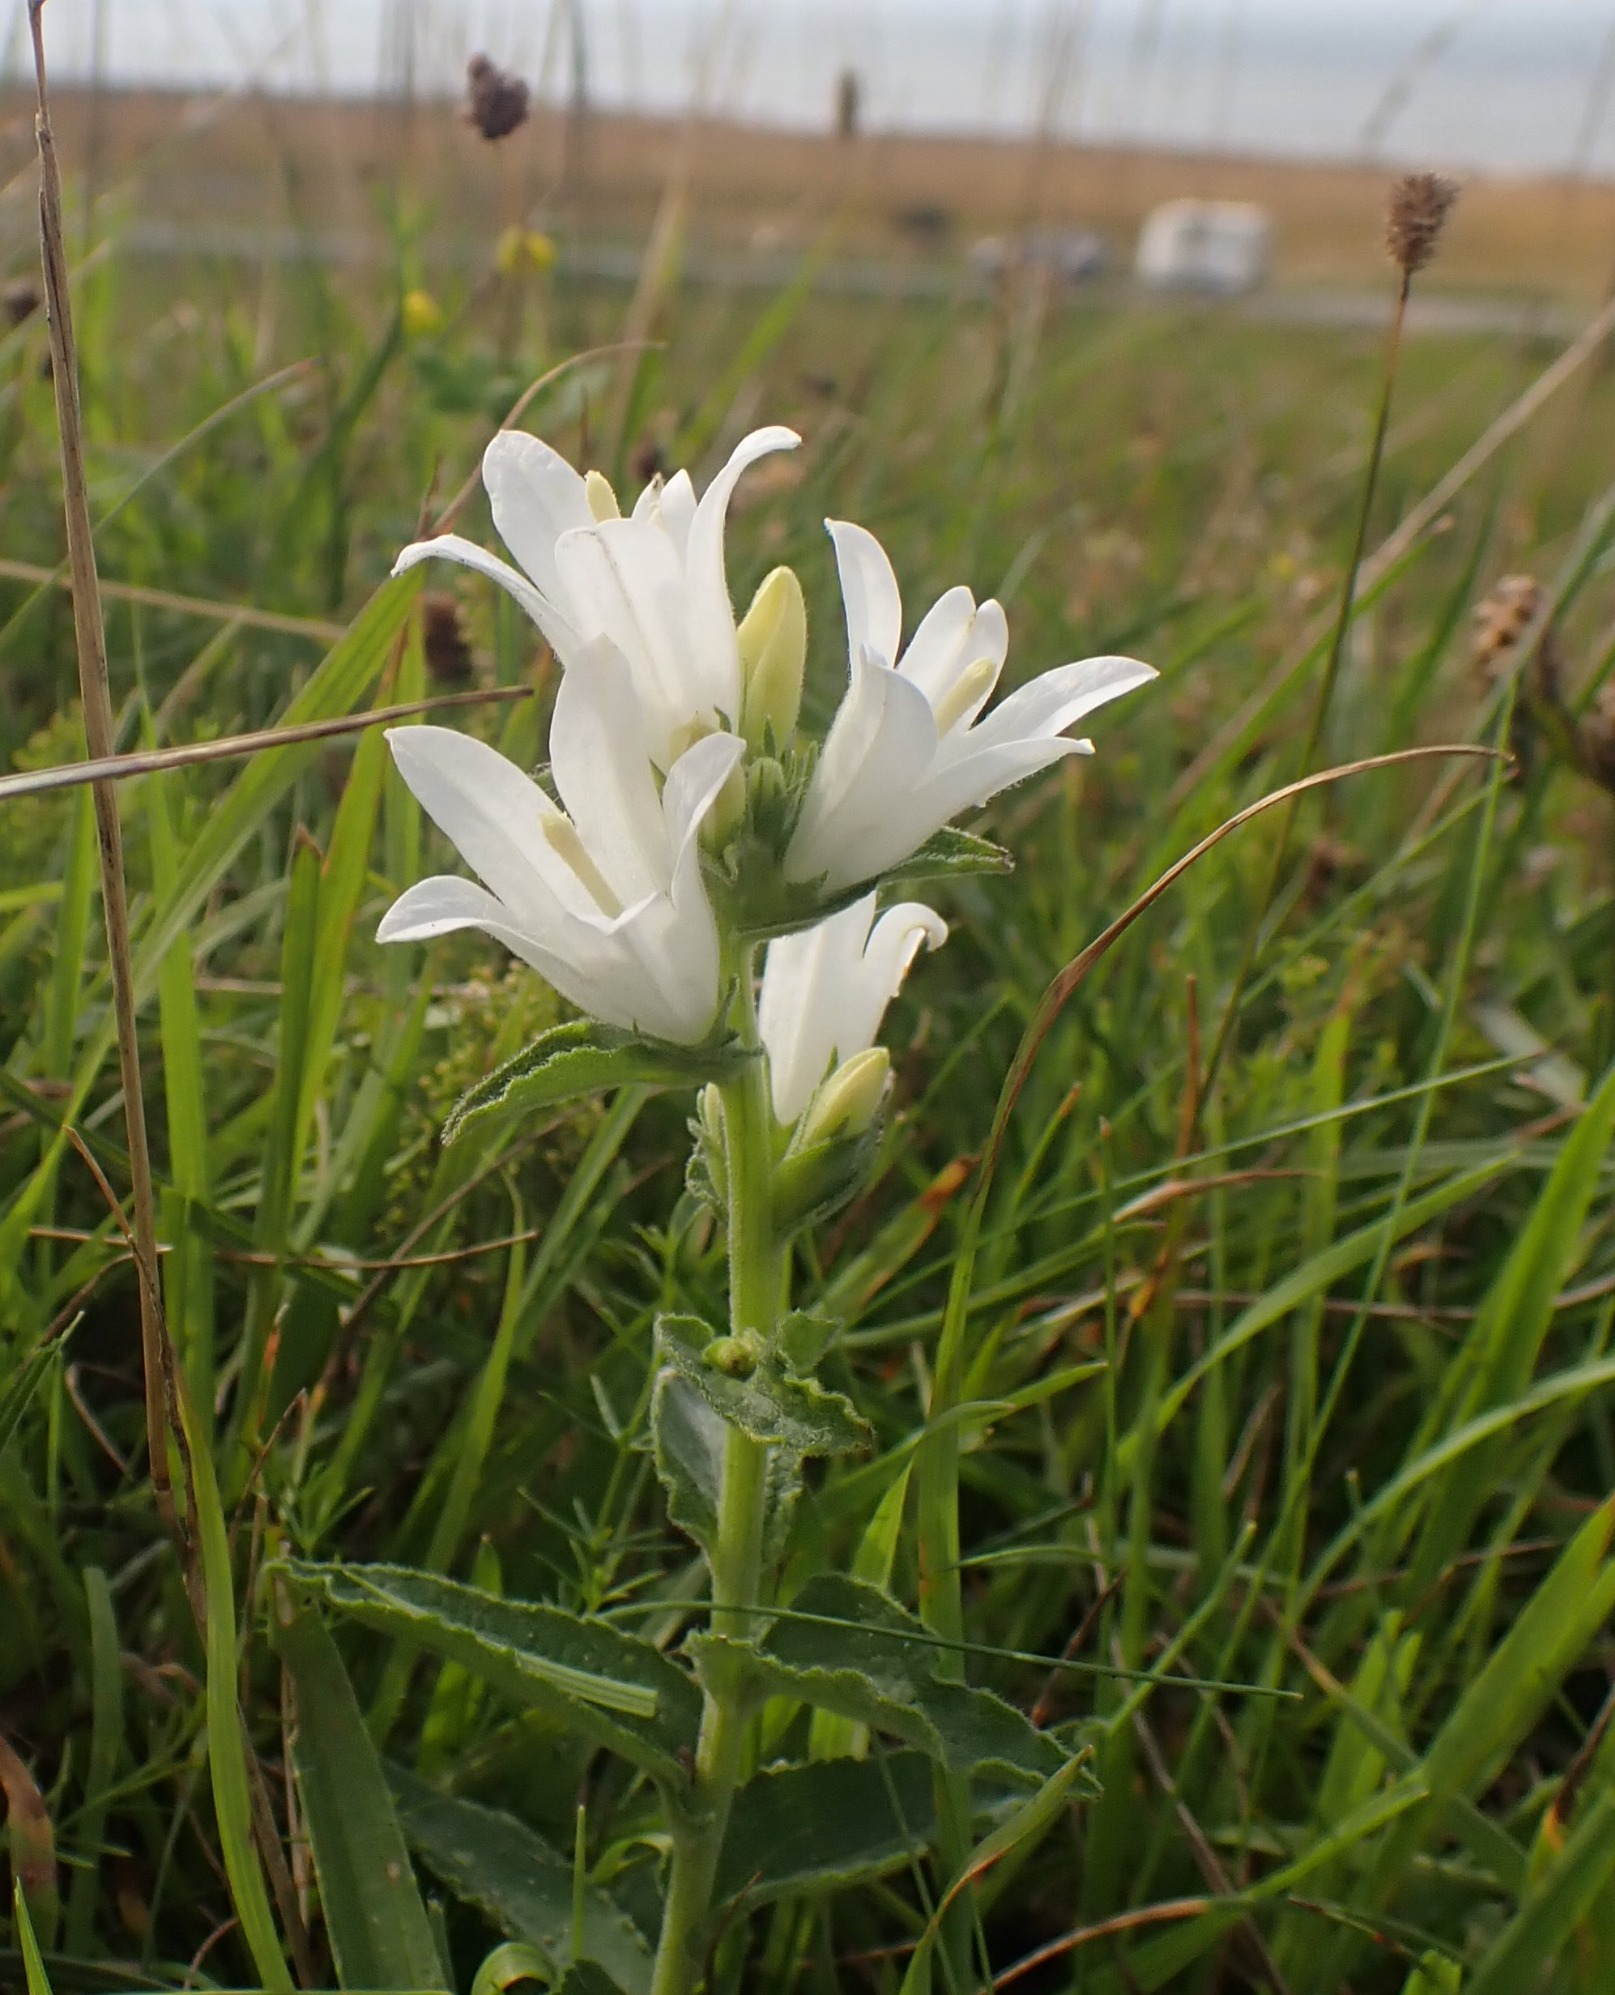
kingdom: Plantae
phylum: Tracheophyta
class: Magnoliopsida
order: Asterales
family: Campanulaceae
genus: Campanula
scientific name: Campanula glomerata
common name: Nøgleblomstret klokke
